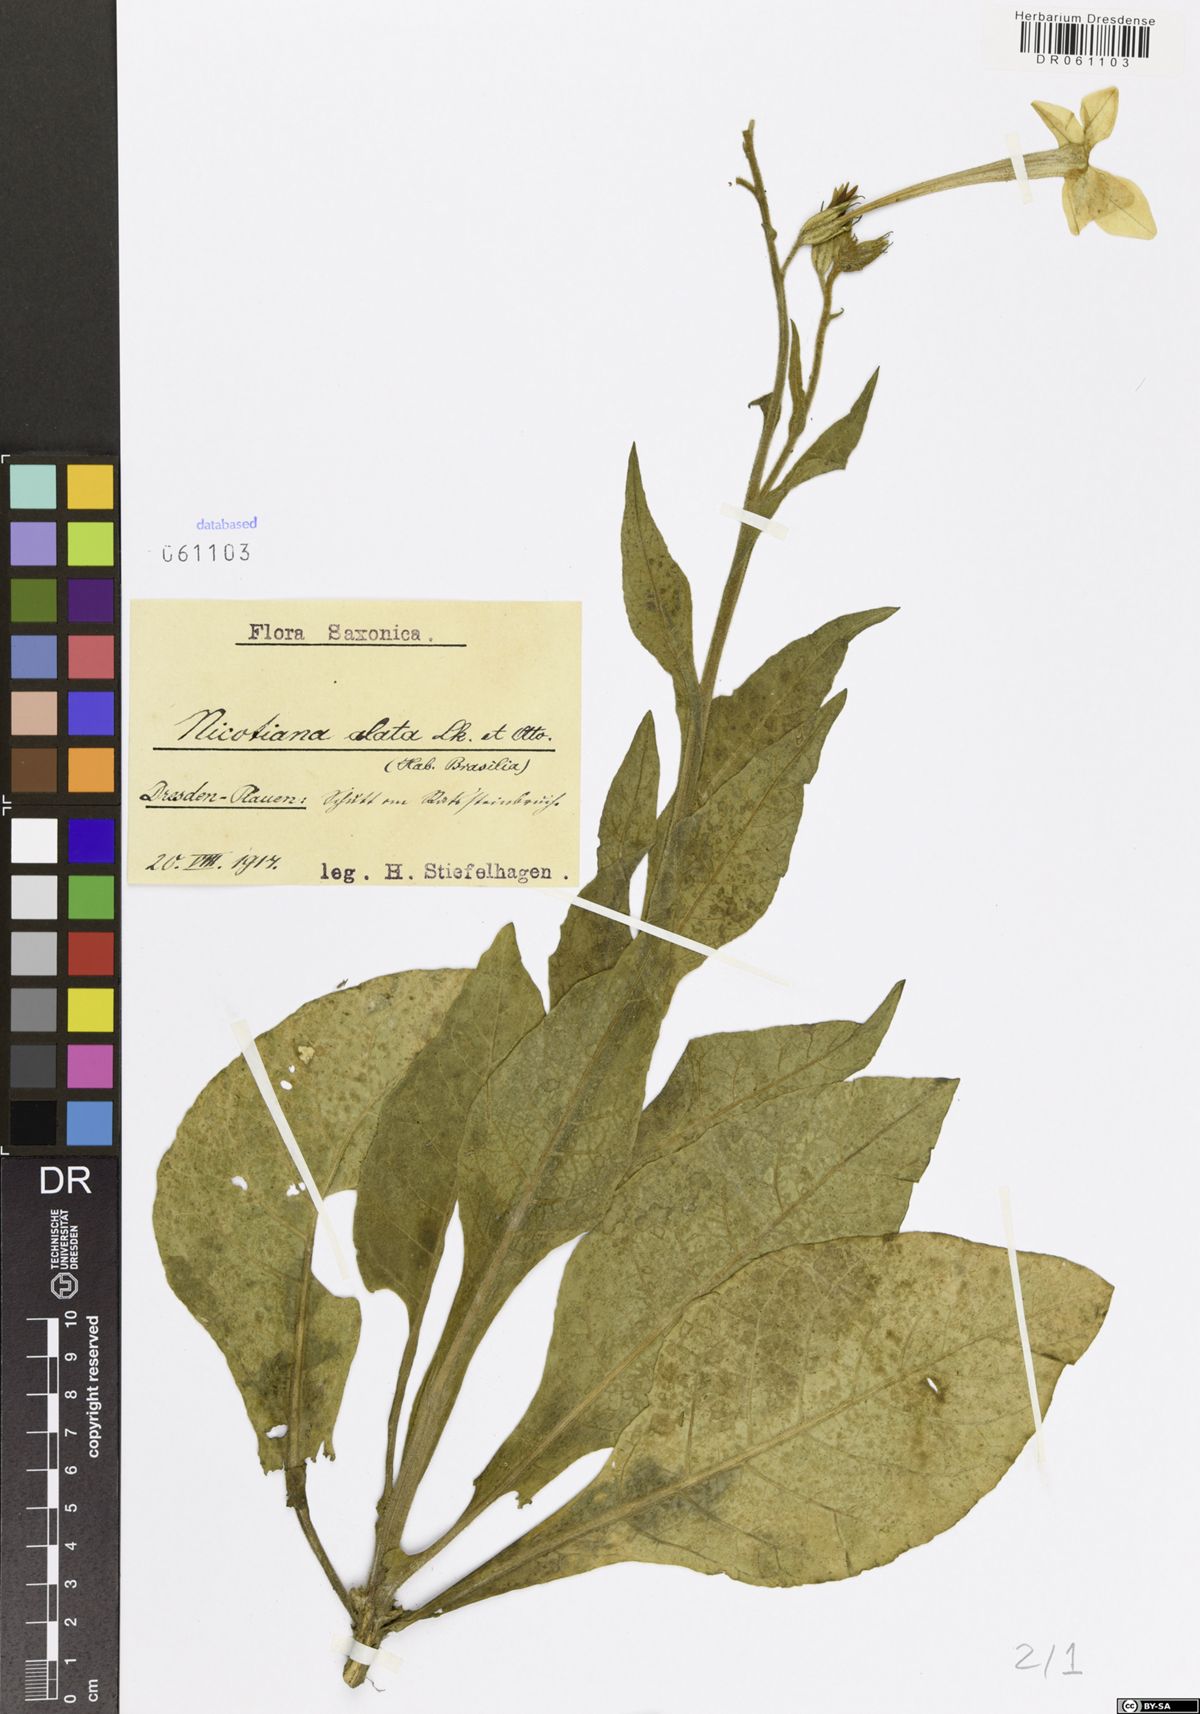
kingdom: Plantae
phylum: Tracheophyta
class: Magnoliopsida
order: Solanales
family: Solanaceae
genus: Nicotiana
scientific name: Nicotiana alata
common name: Jasmine tobacco
